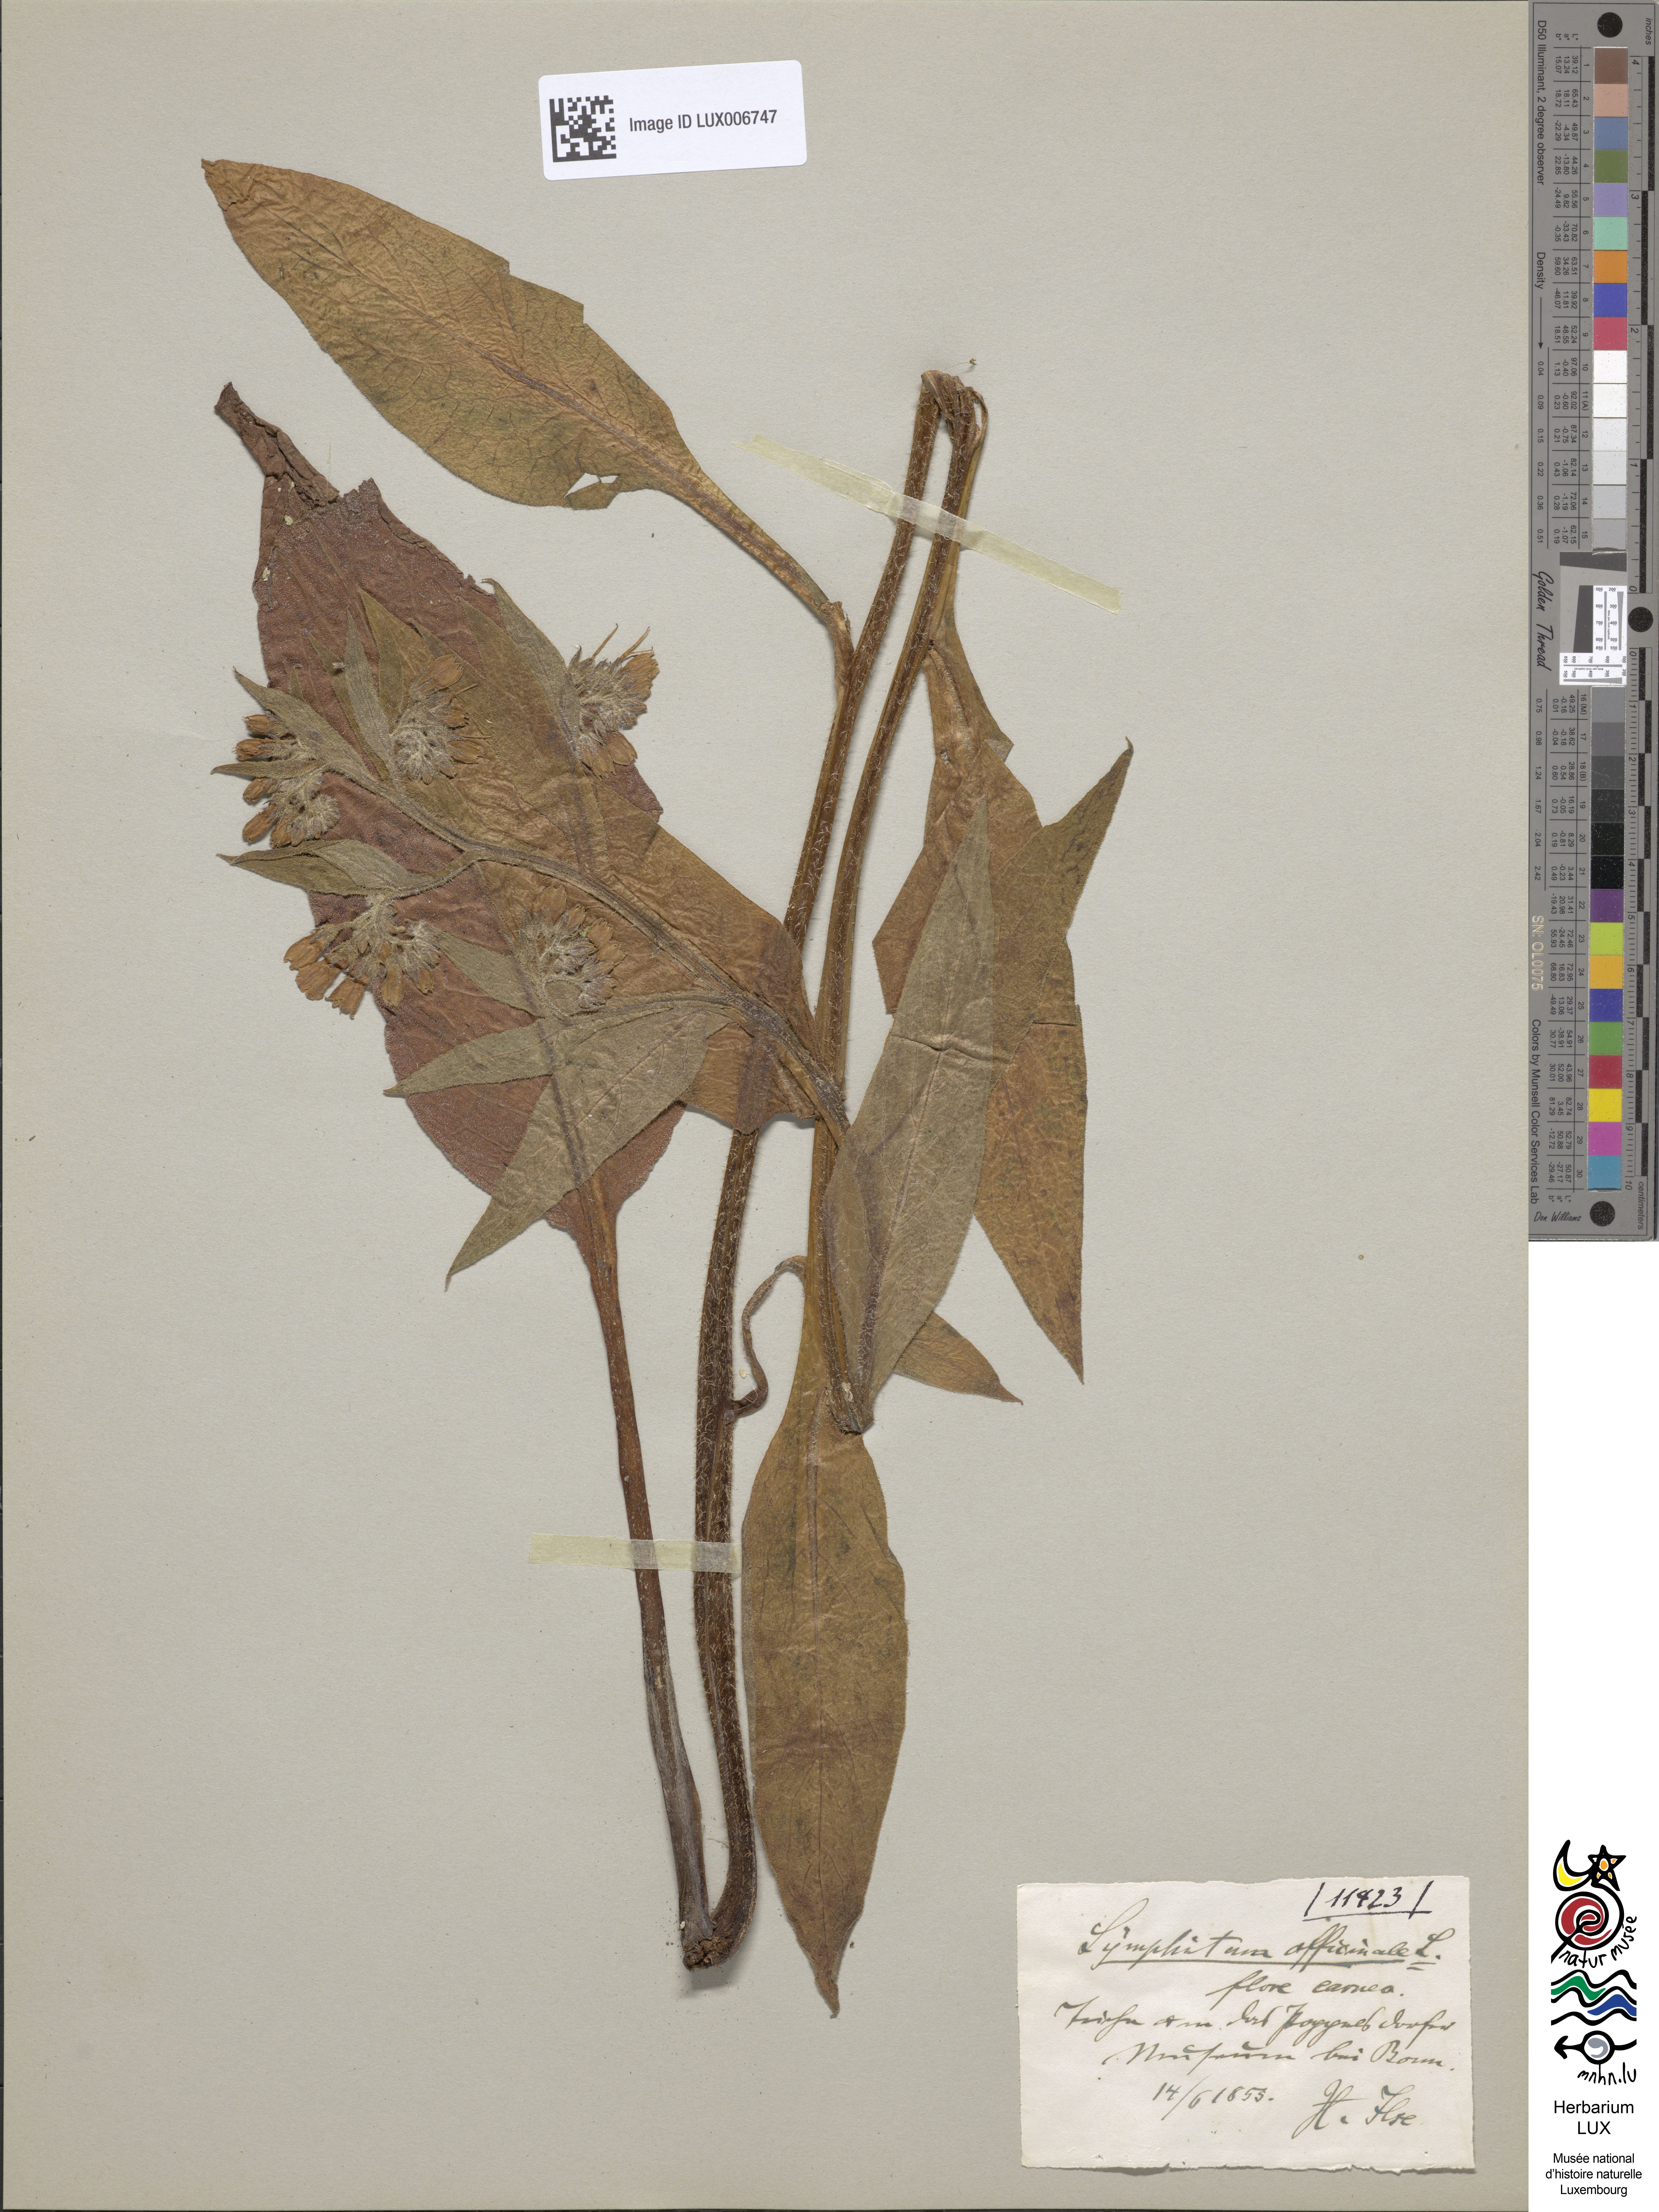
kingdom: Plantae
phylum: Tracheophyta
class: Magnoliopsida
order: Boraginales
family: Boraginaceae
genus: Symphytum
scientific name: Symphytum officinale
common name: Common comfrey
